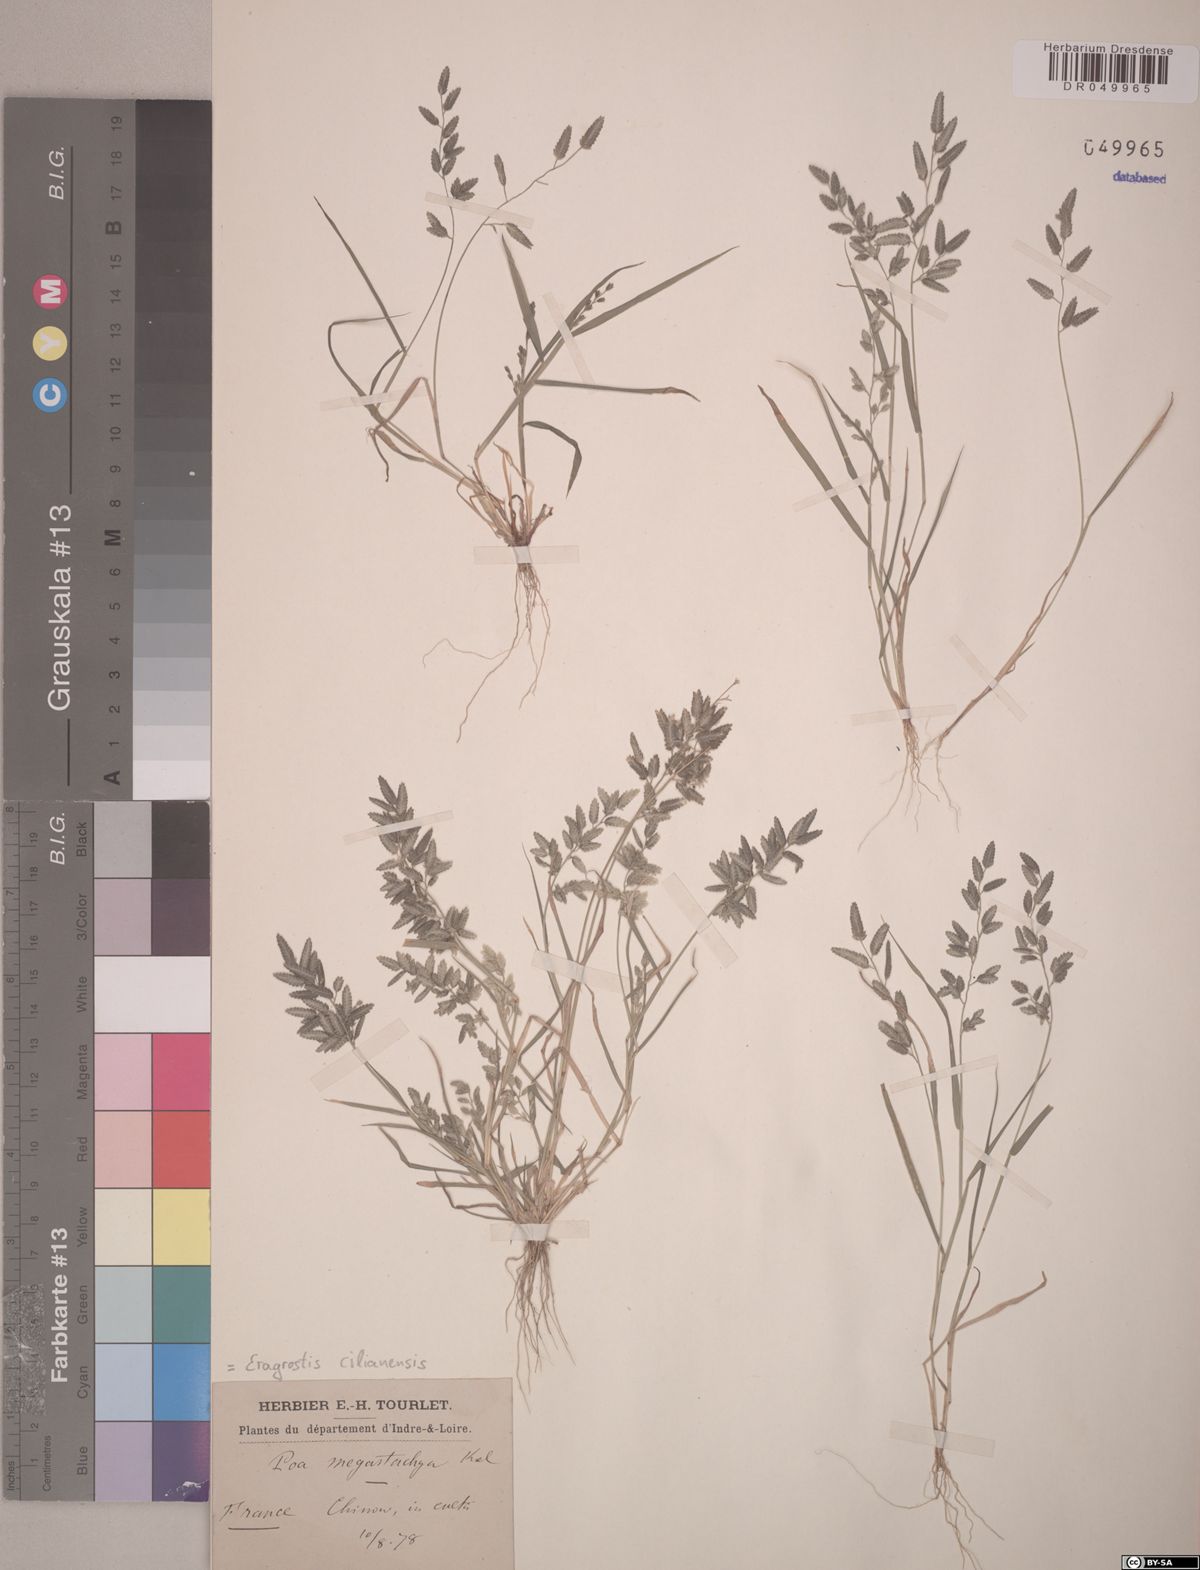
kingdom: Plantae
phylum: Tracheophyta
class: Liliopsida
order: Poales
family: Poaceae
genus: Eragrostis
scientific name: Eragrostis cilianensis
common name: Stinkgrass
